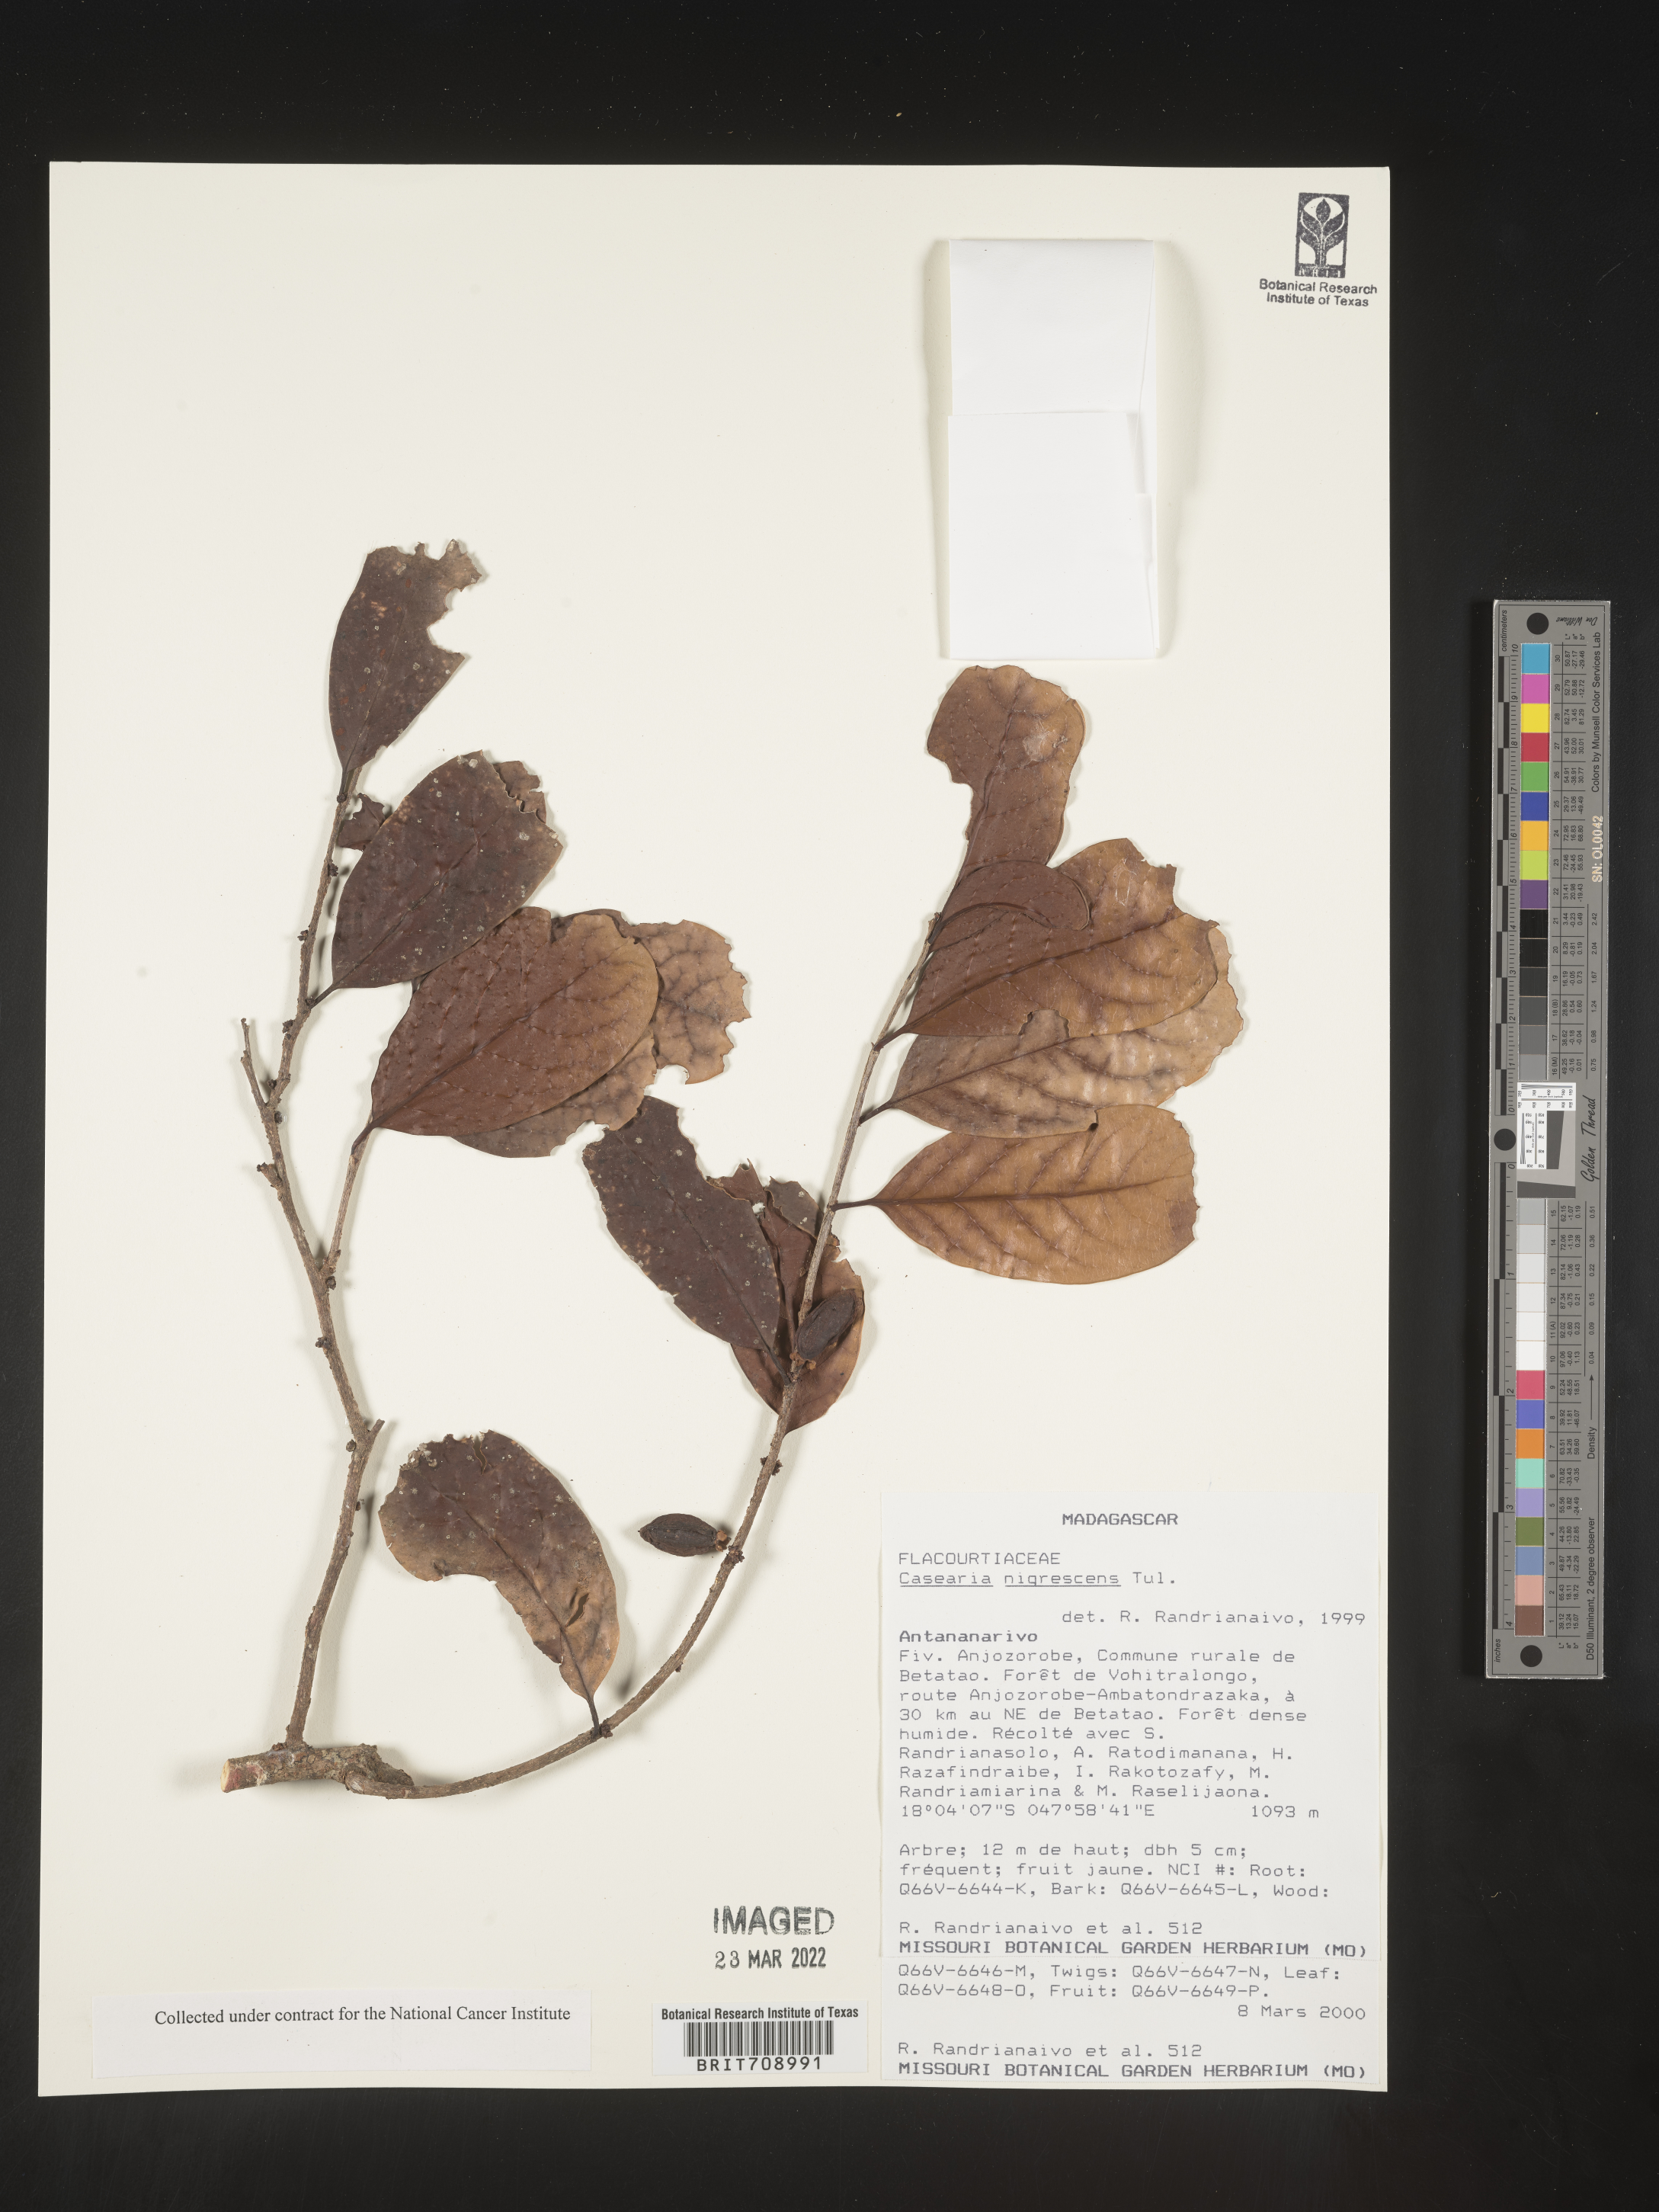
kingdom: Plantae
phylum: Tracheophyta
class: Magnoliopsida
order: Malpighiales
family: Salicaceae
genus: Casearia
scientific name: Casearia
